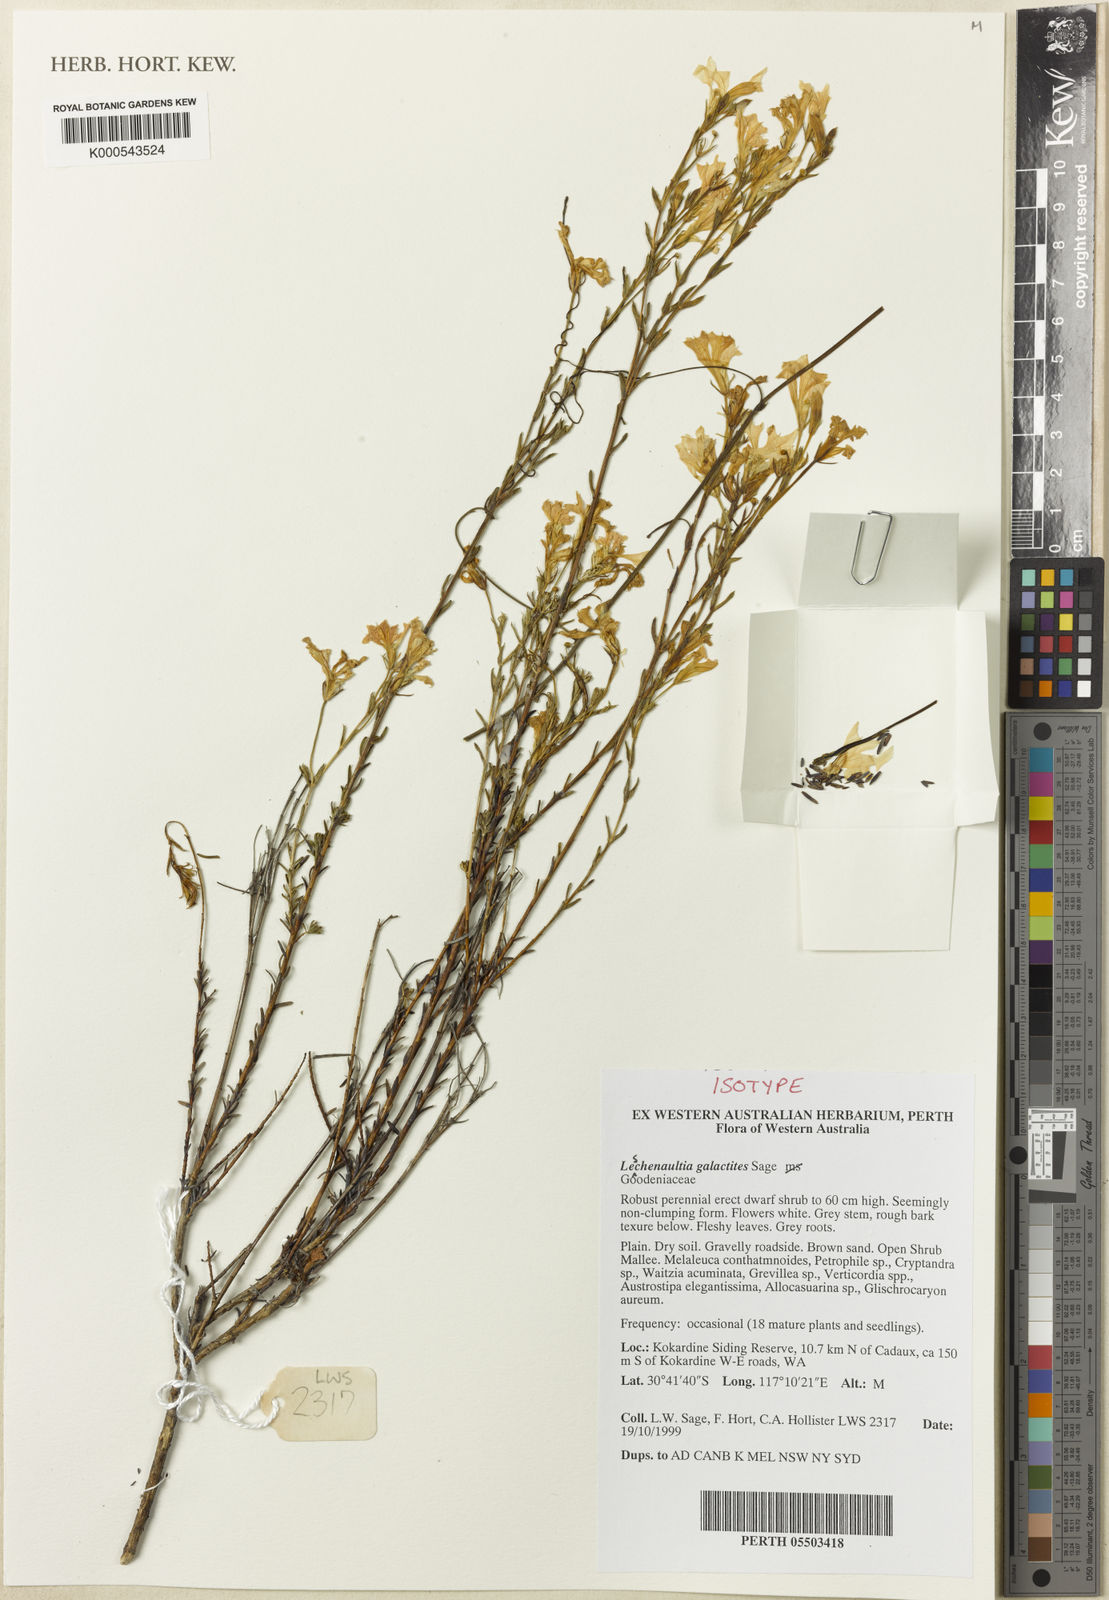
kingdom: Plantae
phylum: Tracheophyta
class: Magnoliopsida
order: Asterales
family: Goodeniaceae
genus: Leschenaultia
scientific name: Leschenaultia galactites
